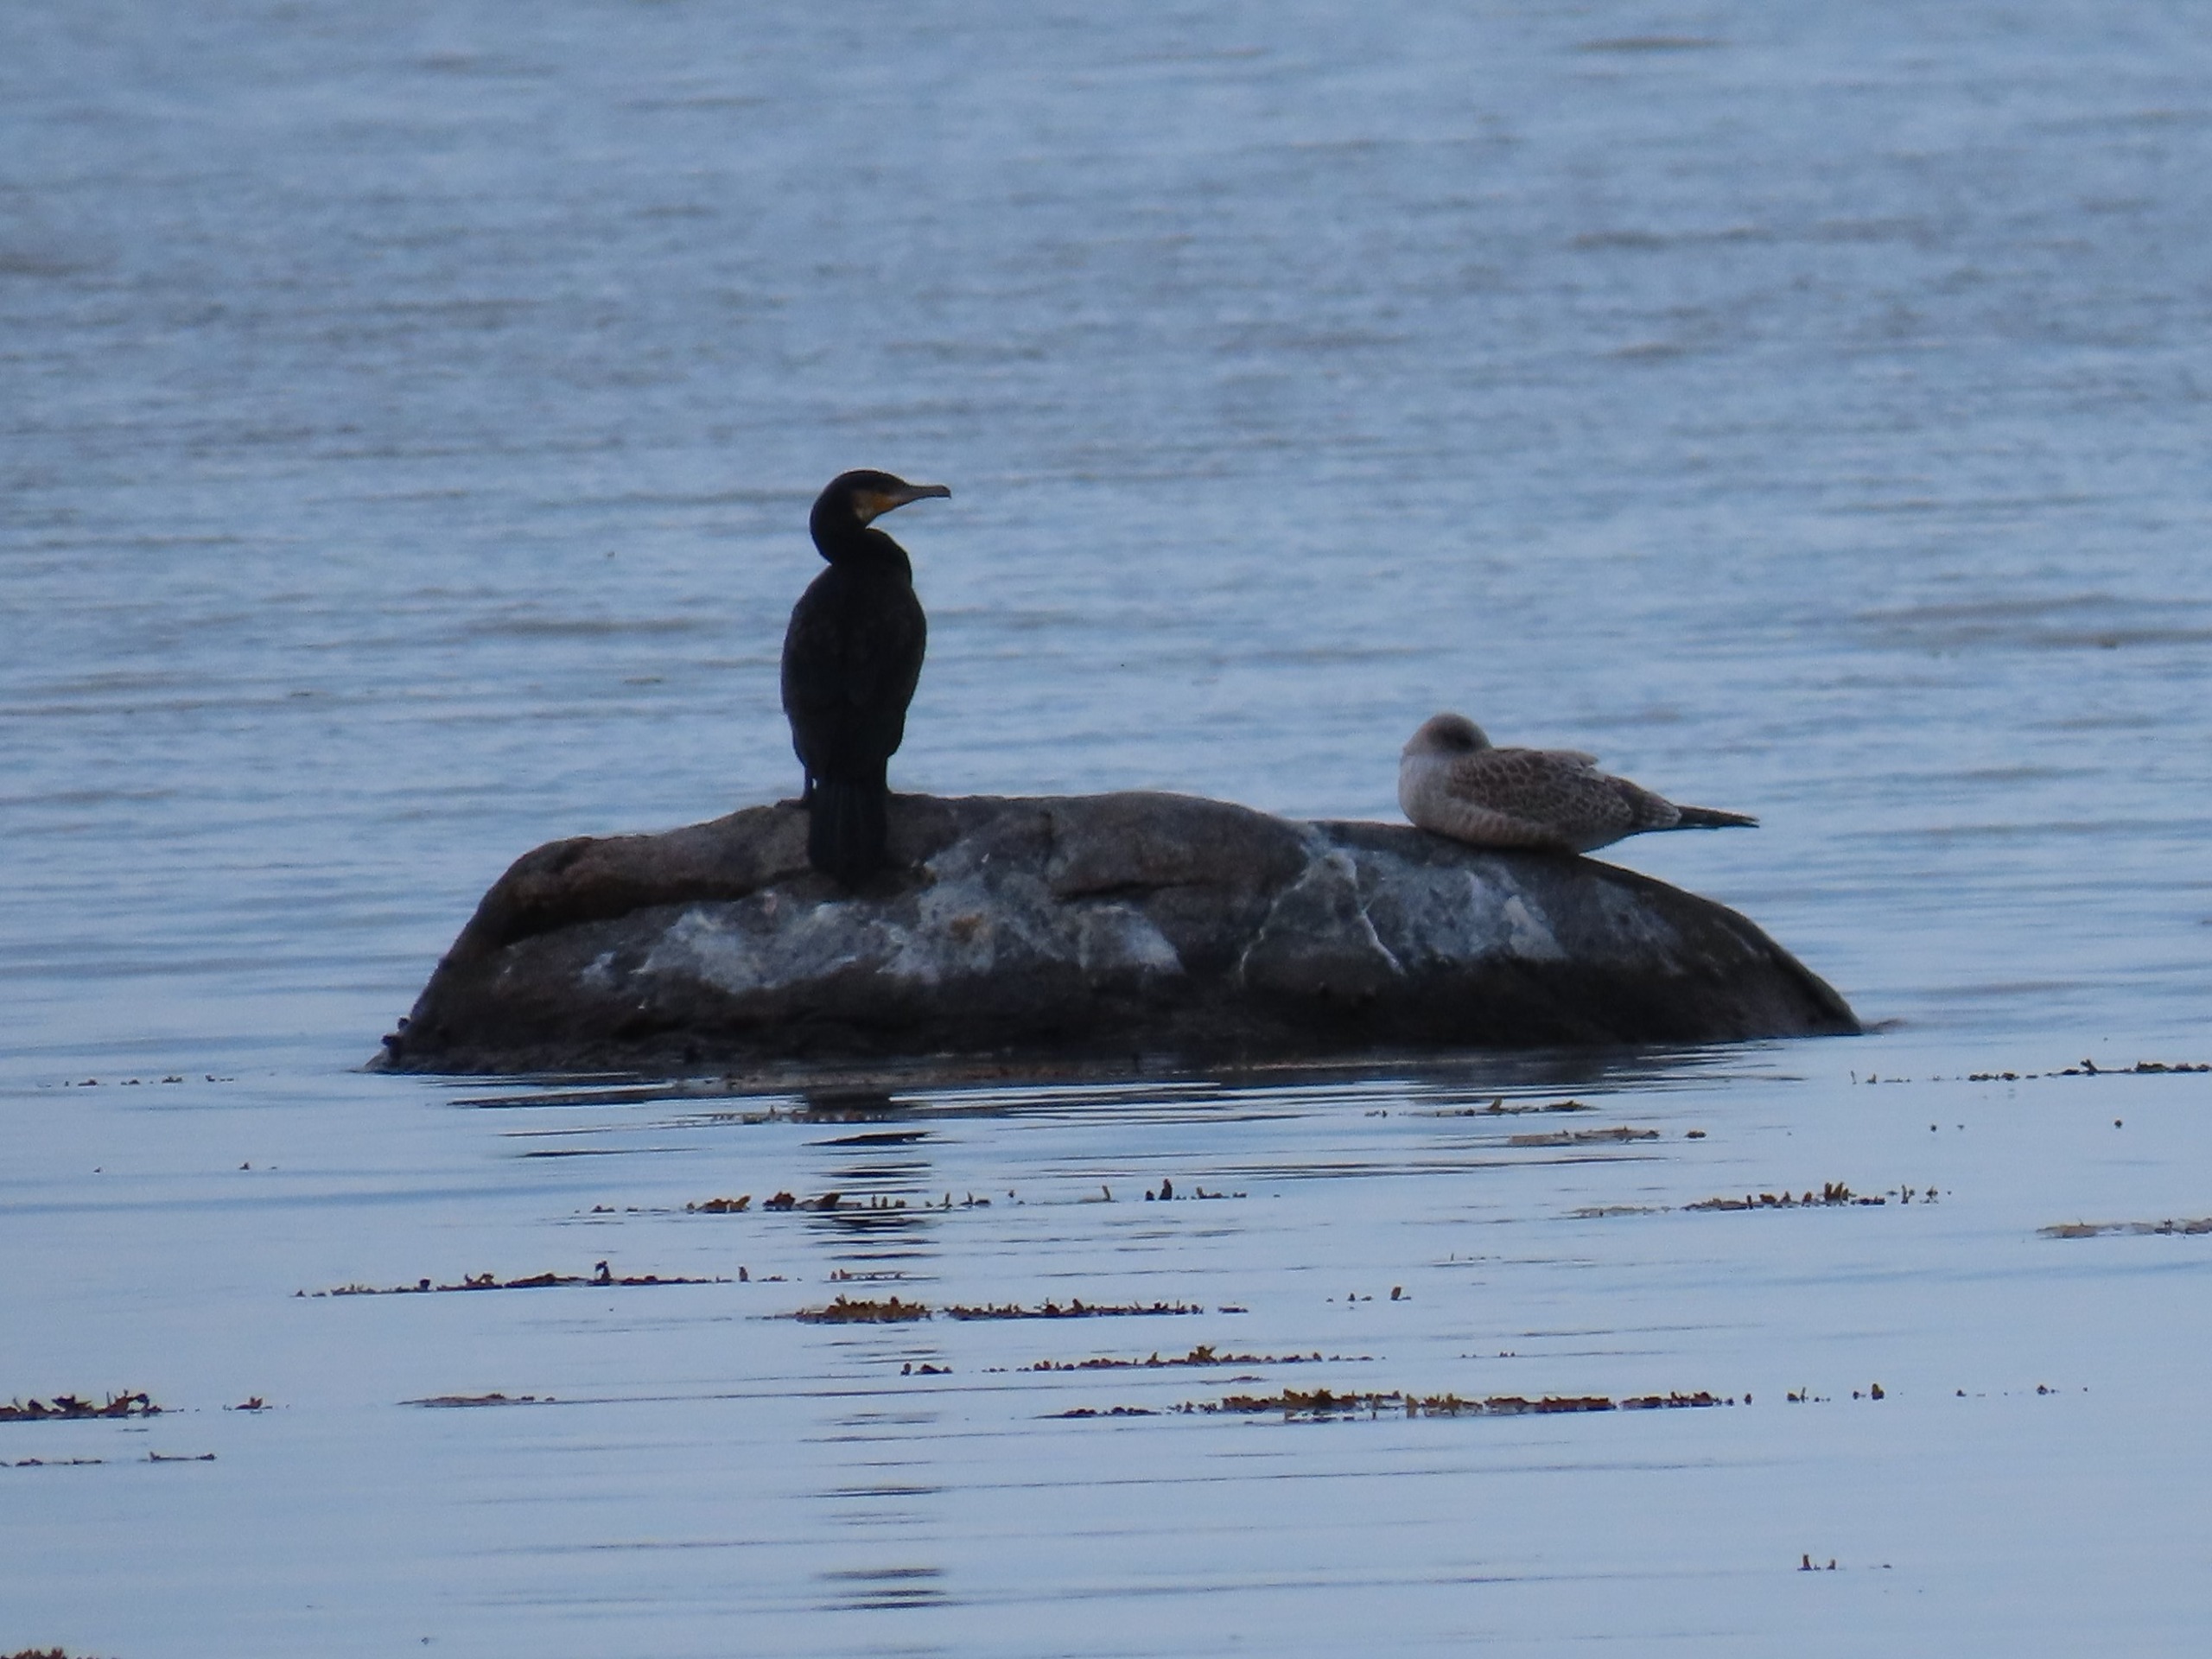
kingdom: Animalia
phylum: Chordata
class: Aves
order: Suliformes
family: Phalacrocoracidae
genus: Phalacrocorax
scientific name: Phalacrocorax carbo
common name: Skarv
